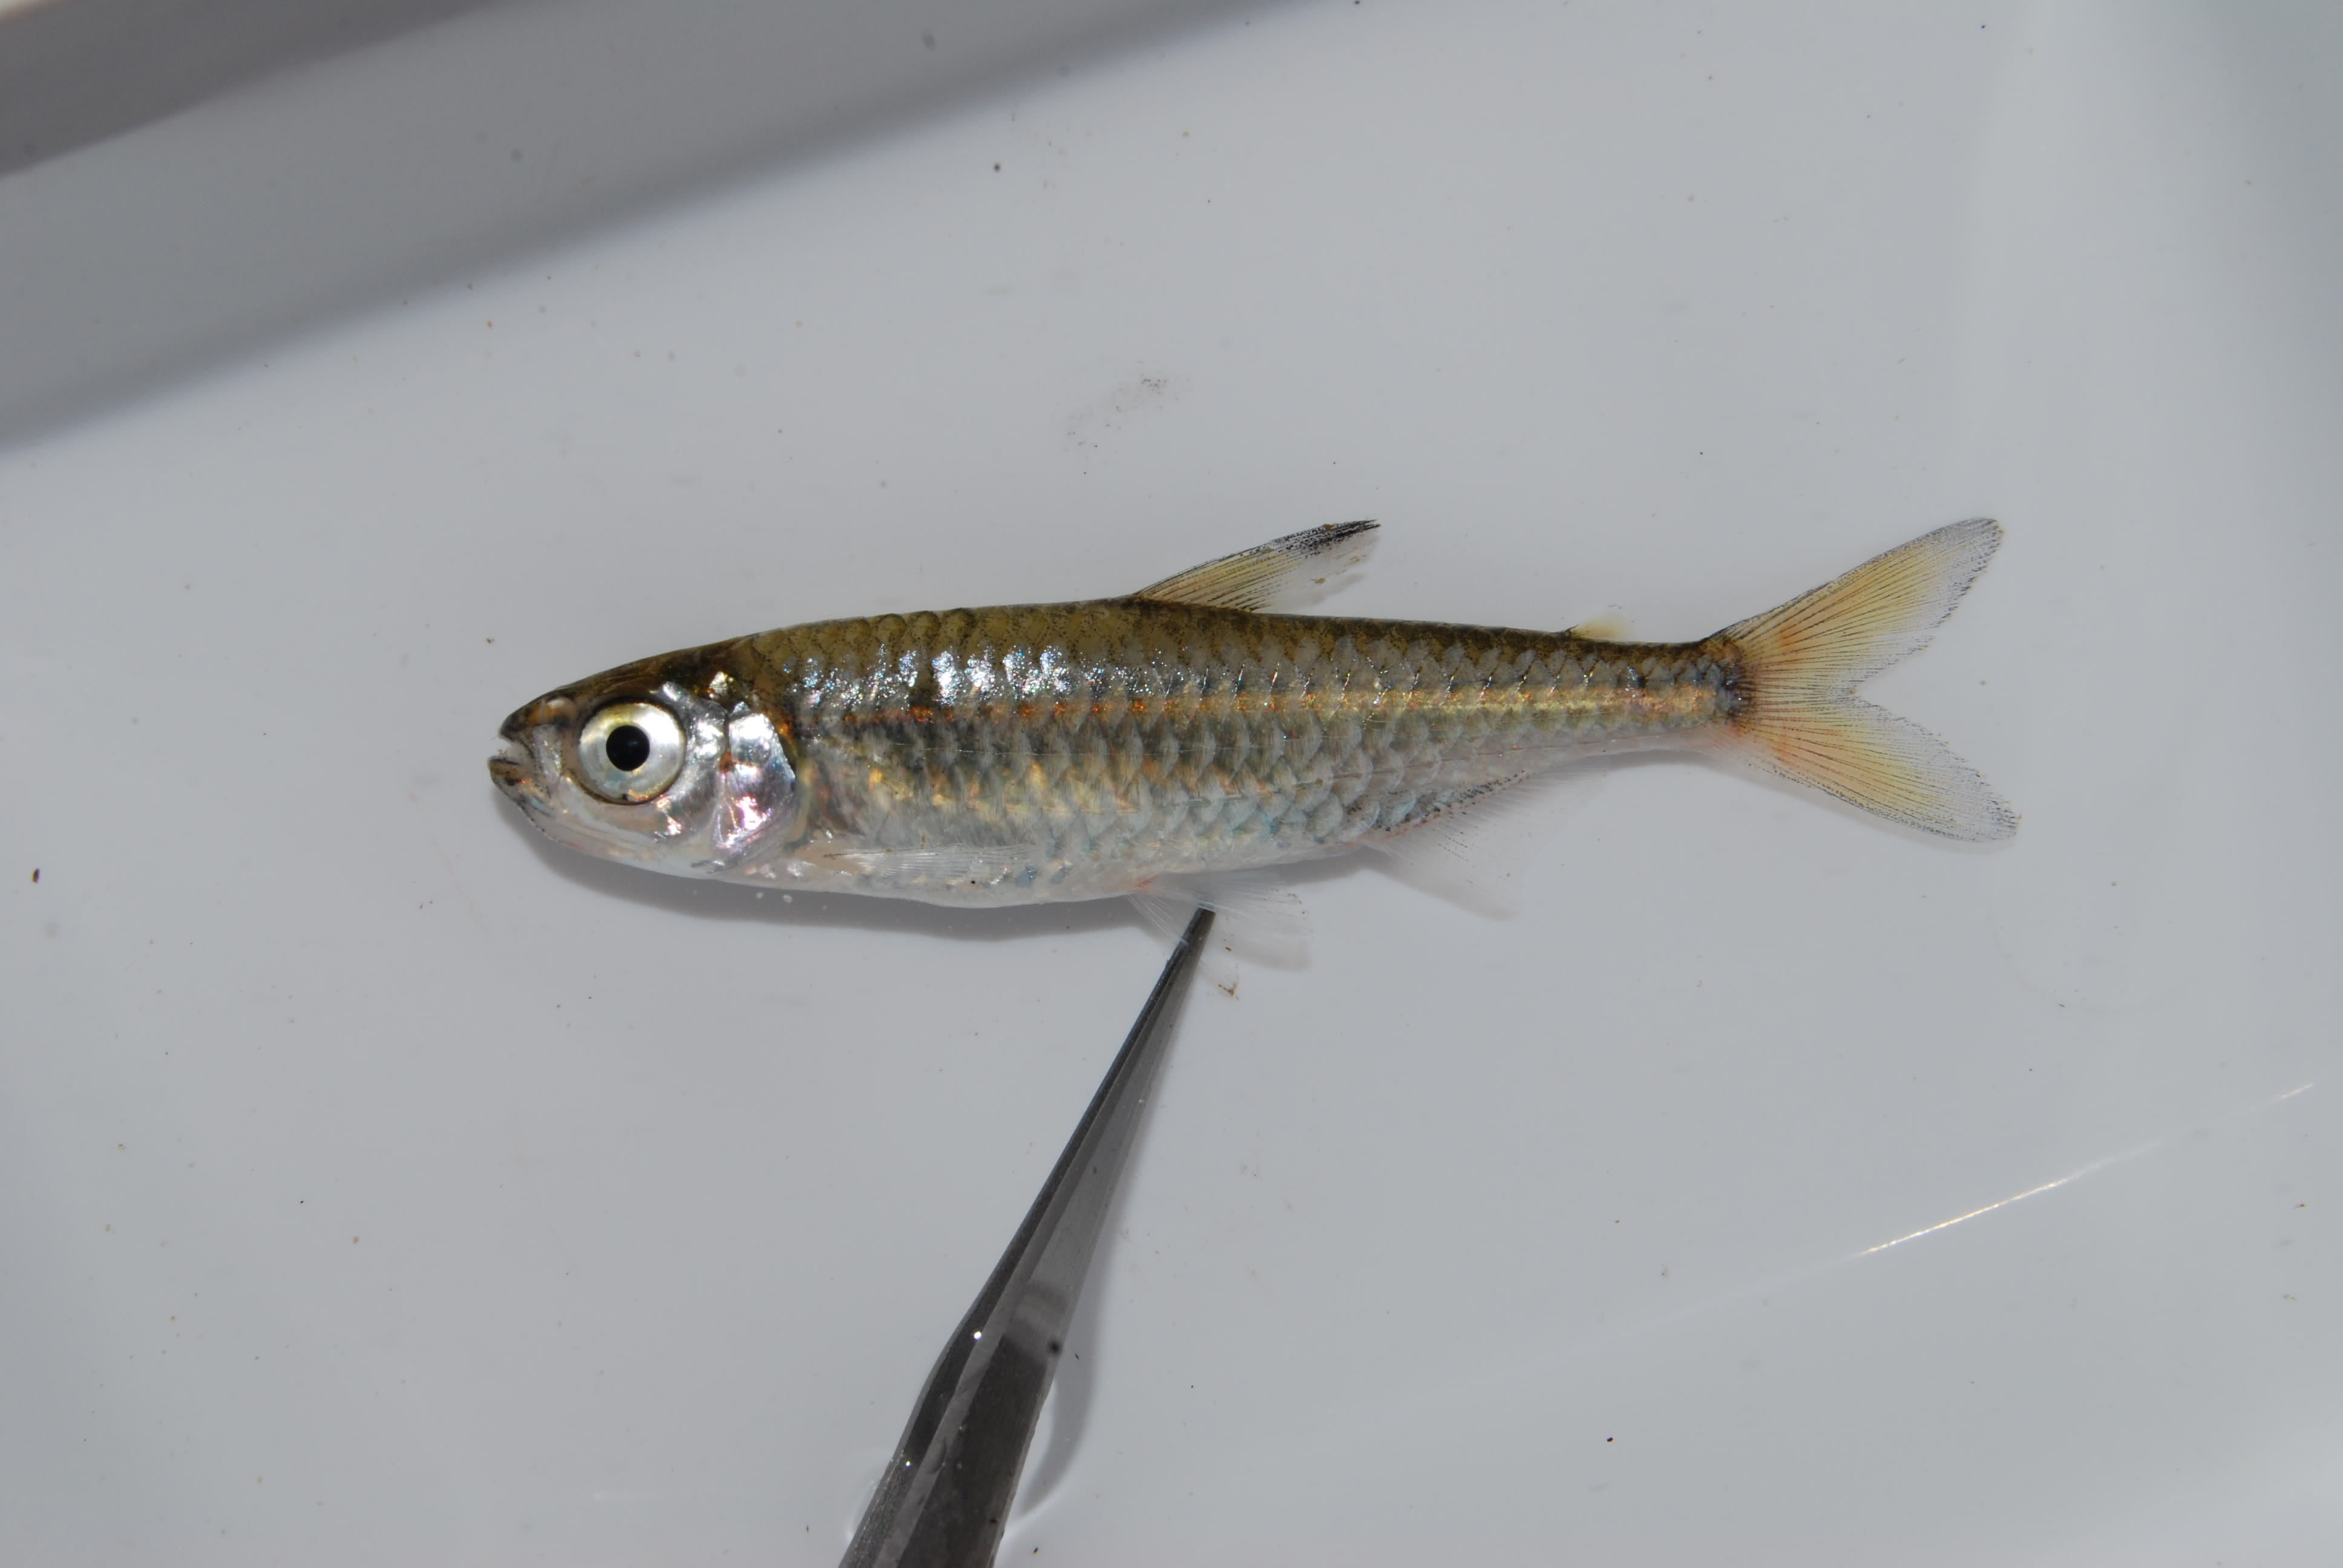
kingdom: Animalia
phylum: Chordata
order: Characiformes
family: Alestidae
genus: Micralestes
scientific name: Micralestes acutidens
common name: Silver robber
